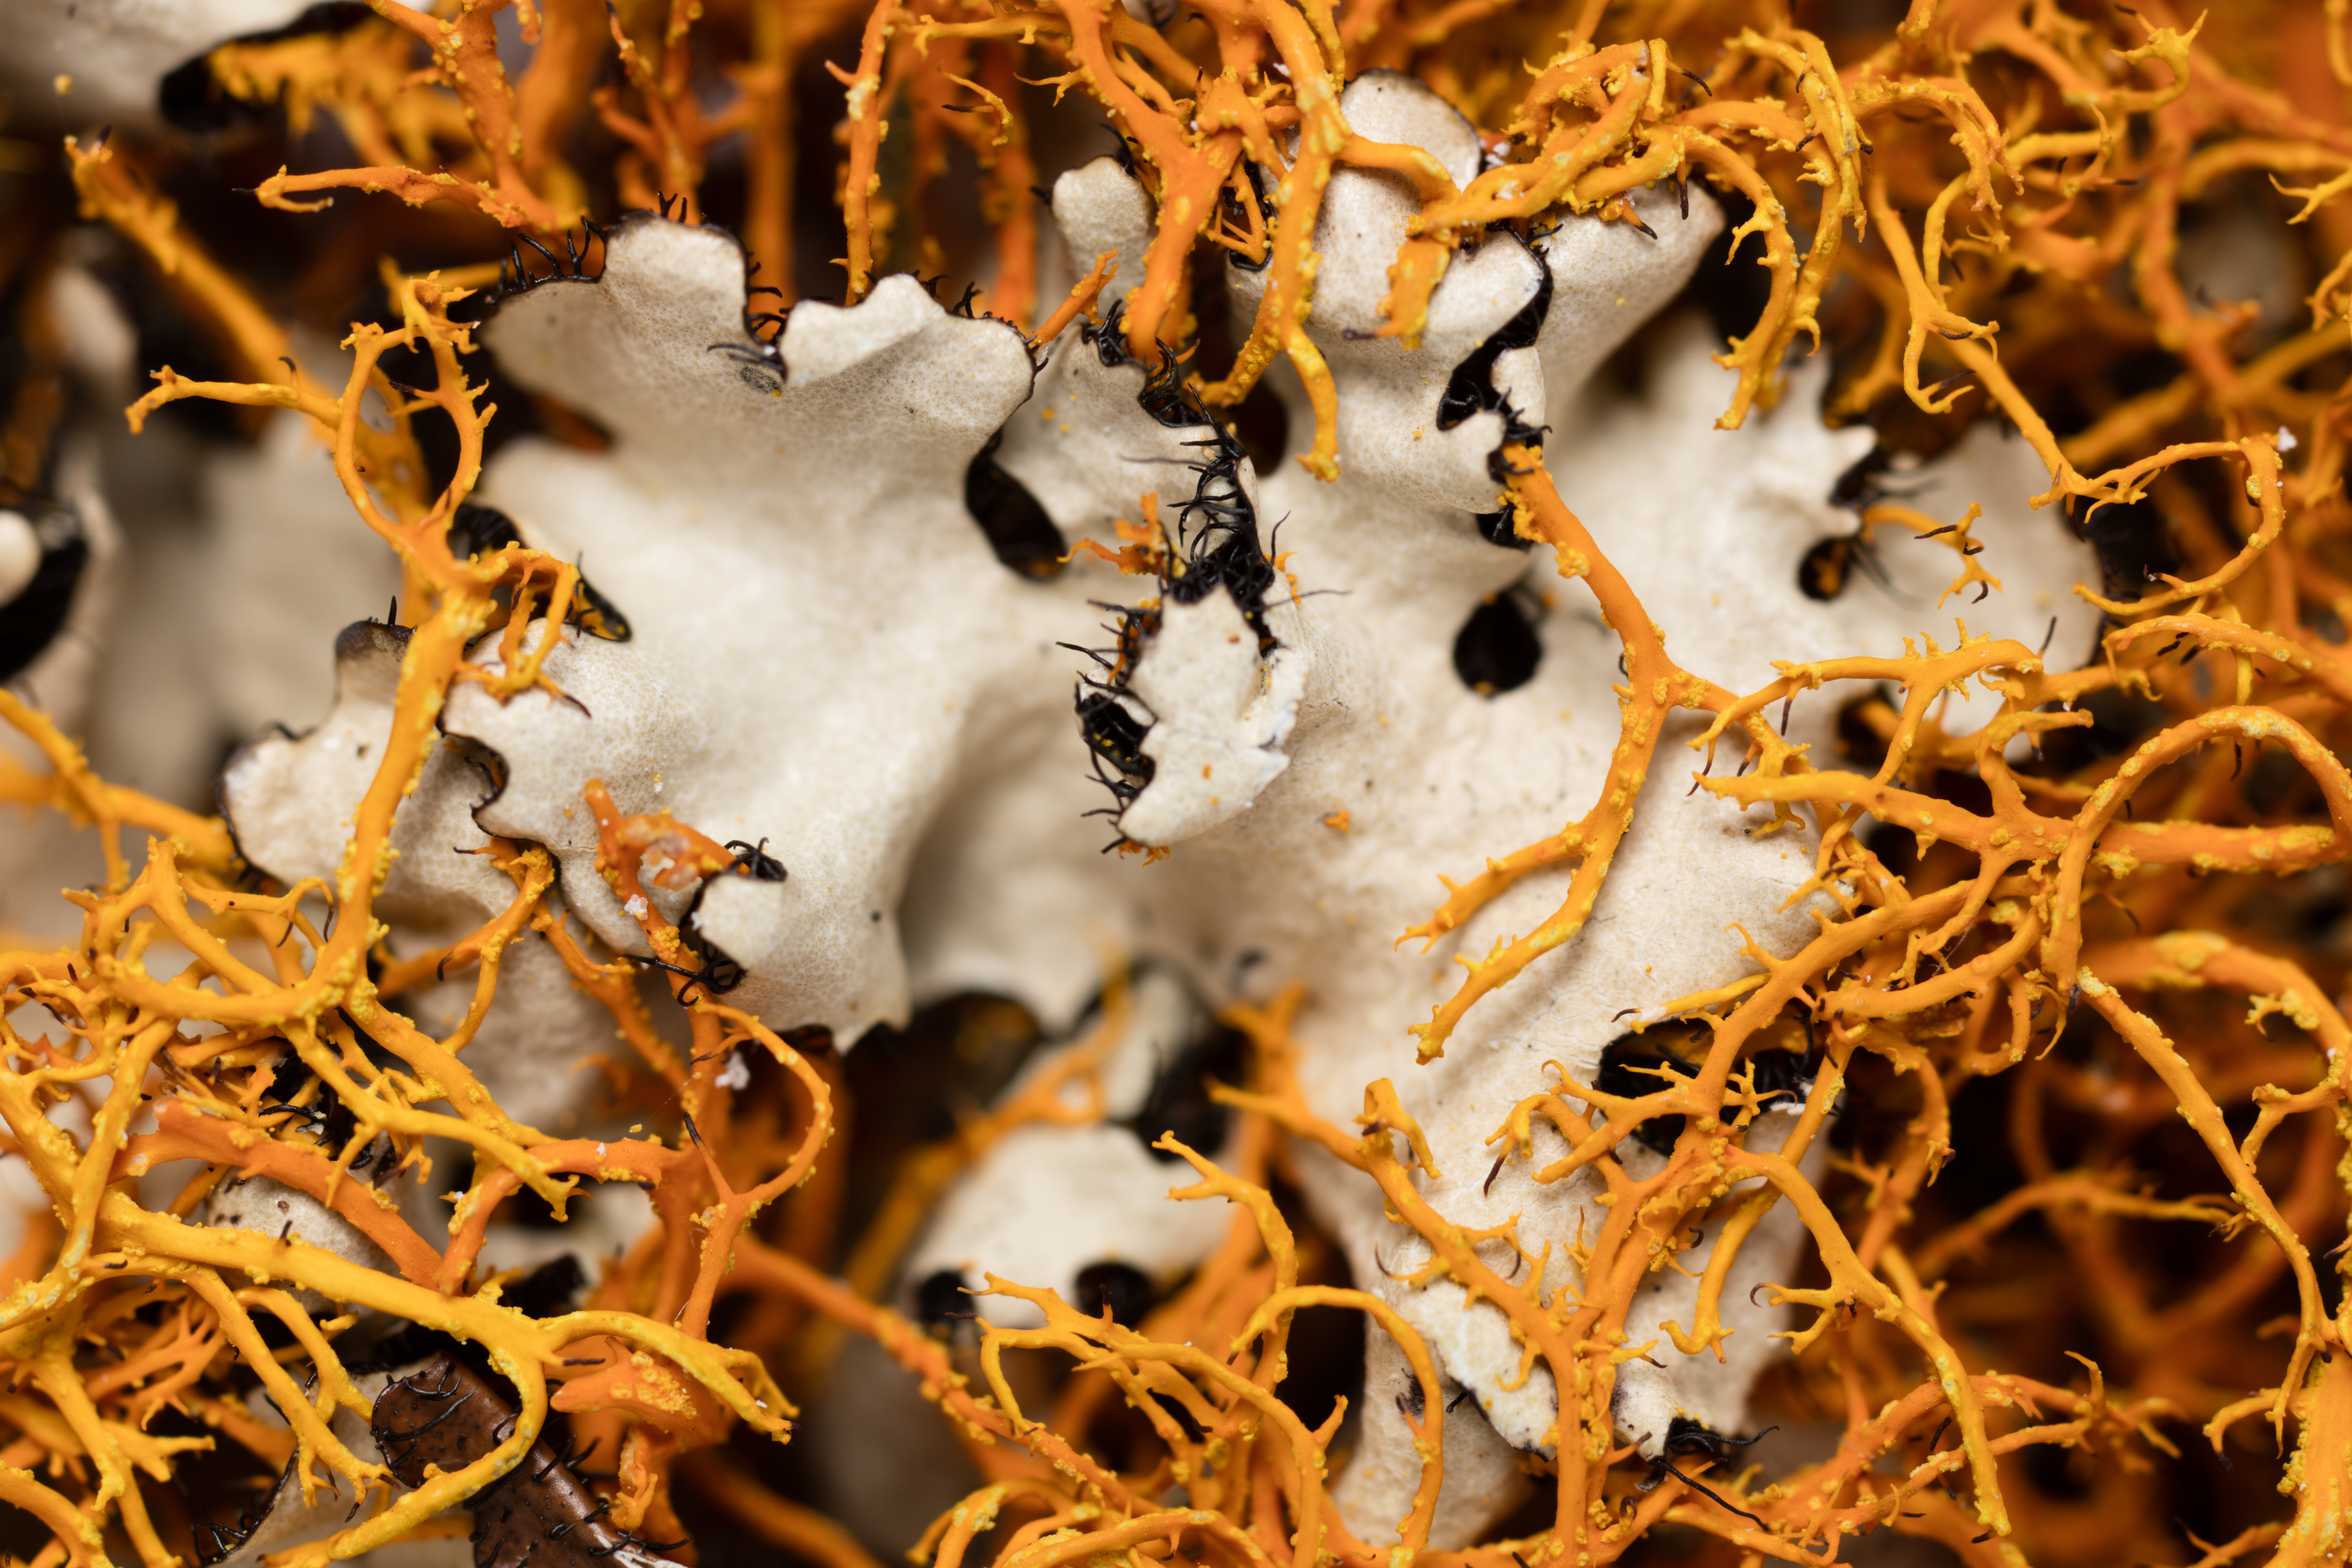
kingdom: Fungi
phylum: Ascomycota
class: Lecanoromycetes
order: Teloschistales
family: Teloschistaceae
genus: Teloschistes
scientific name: Teloschistes flavicans
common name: Golden hair-lichen
